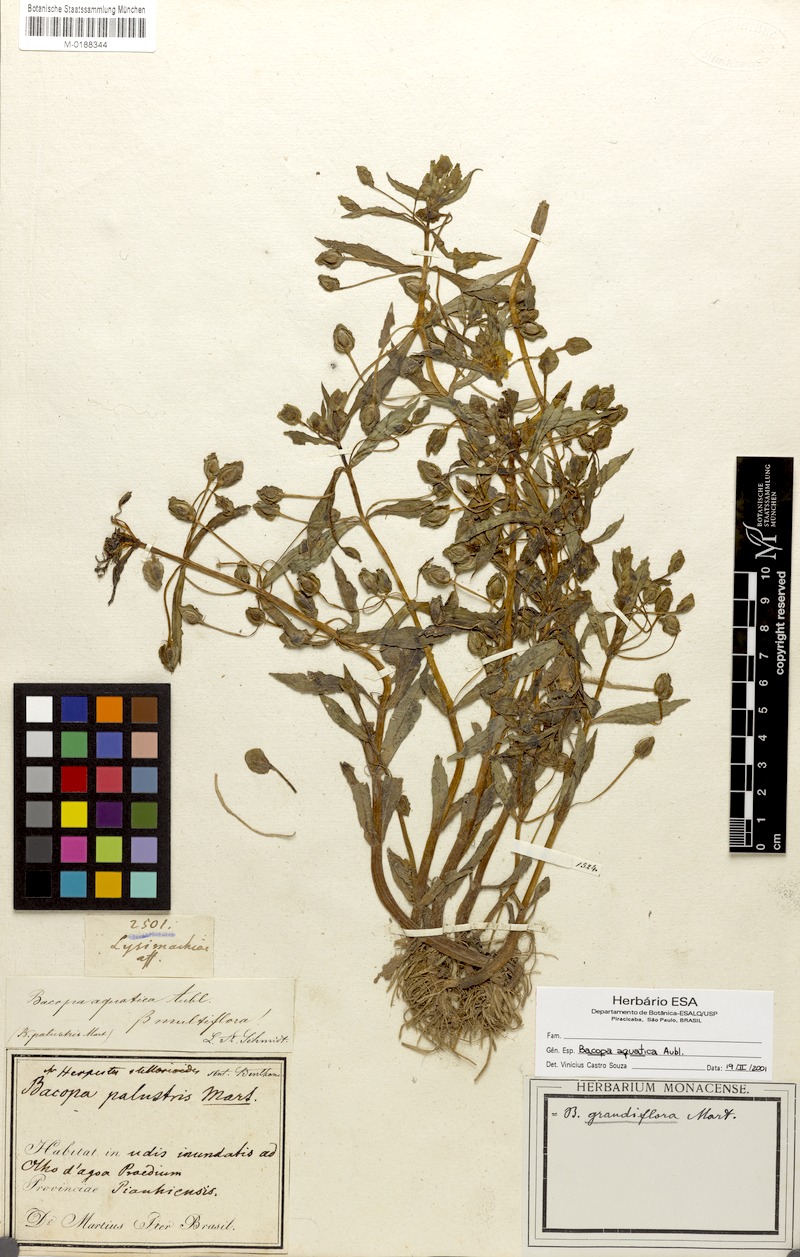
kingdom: Plantae
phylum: Tracheophyta
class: Magnoliopsida
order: Lamiales
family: Plantaginaceae
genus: Bacopa
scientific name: Bacopa aquatica
